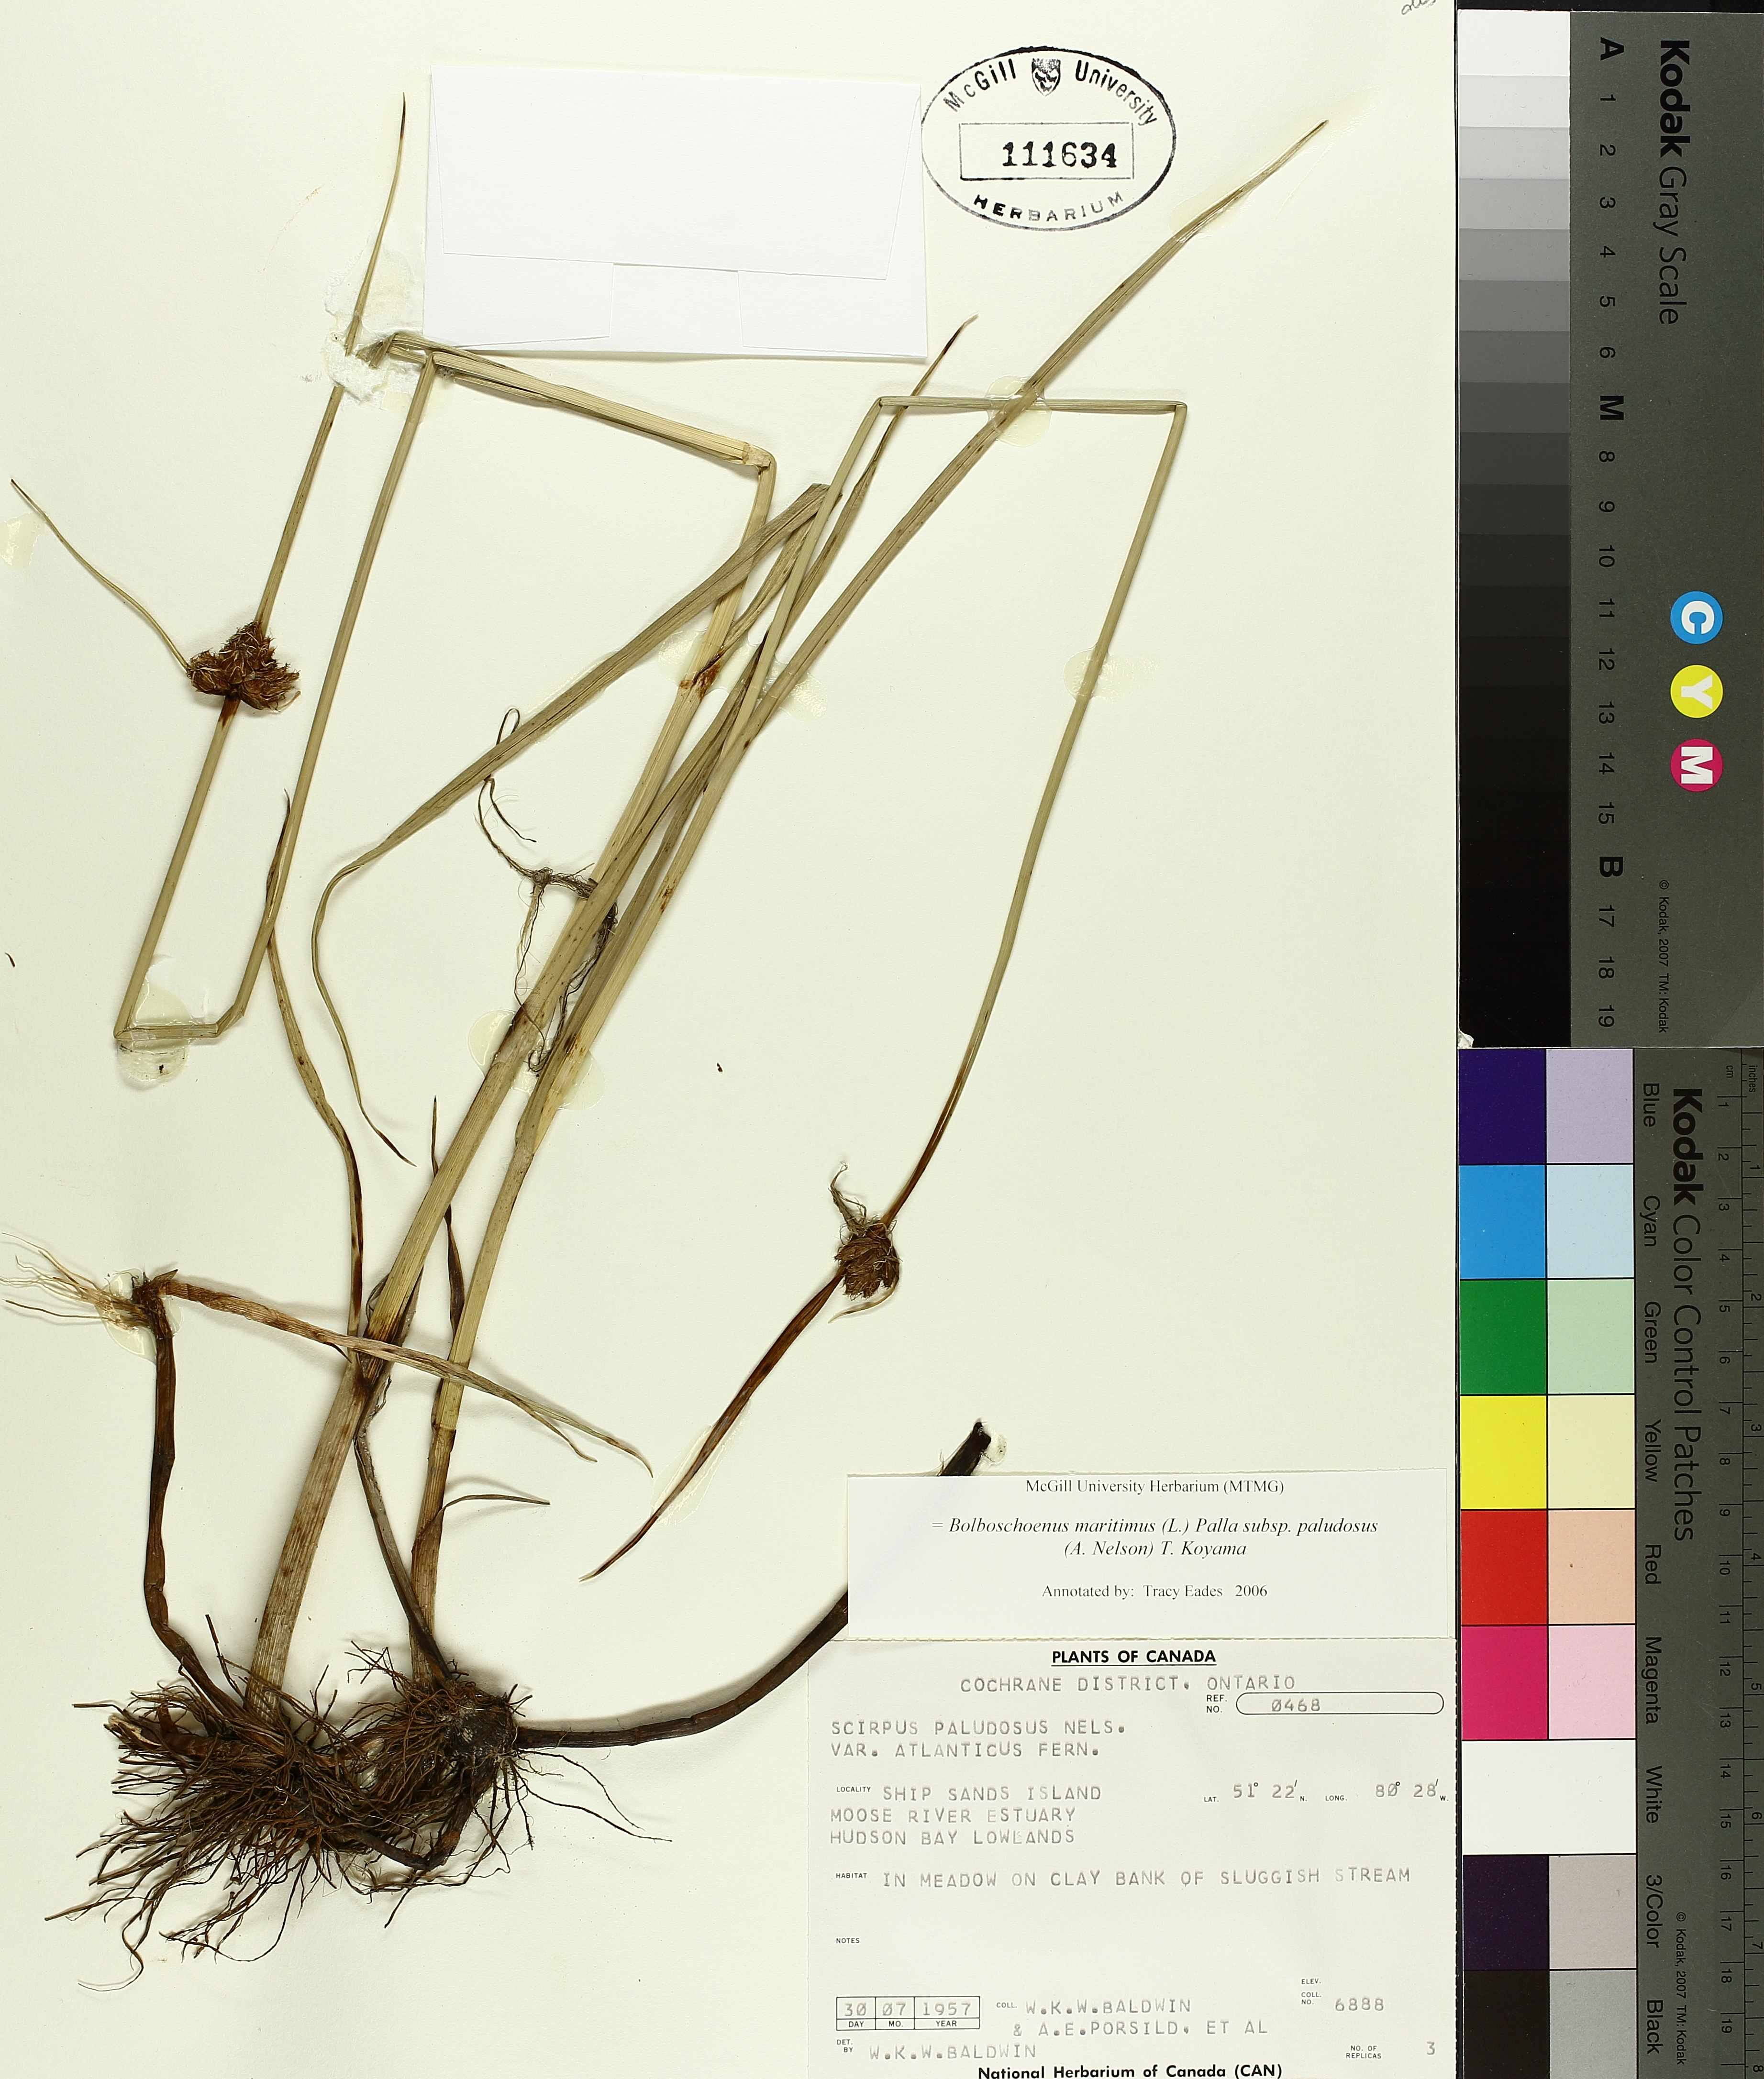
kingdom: Plantae
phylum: Tracheophyta
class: Liliopsida
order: Poales
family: Cyperaceae
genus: Bolboschoenus
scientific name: Bolboschoenus maritimus
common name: Sea club-rush
